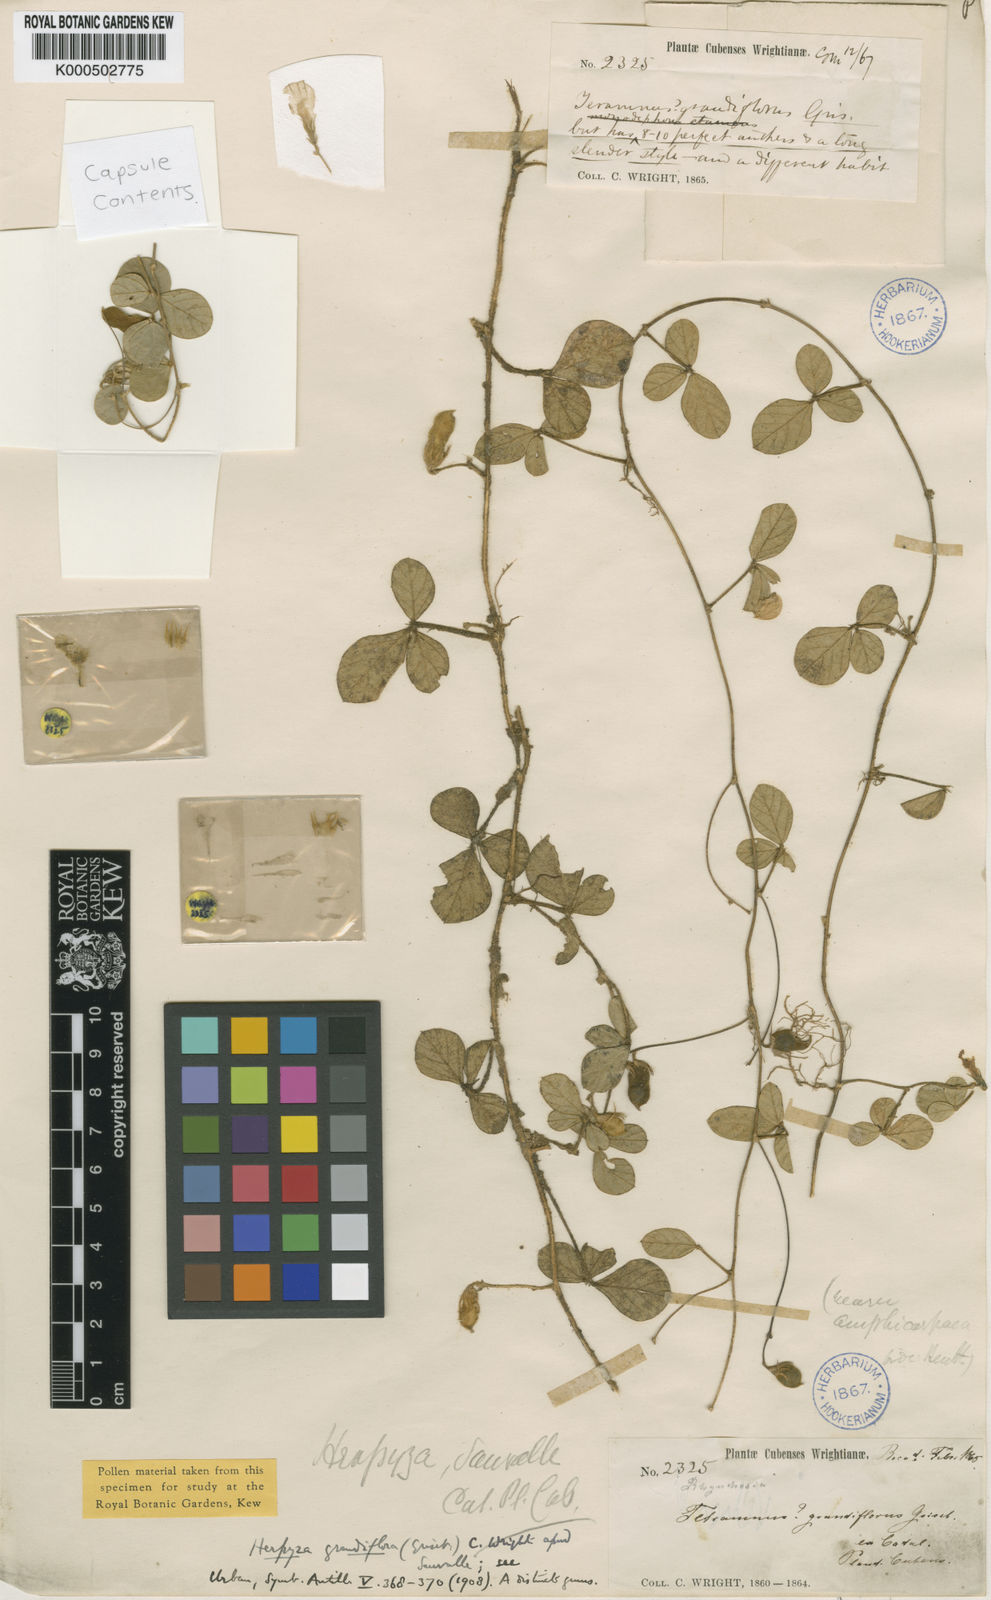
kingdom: Plantae
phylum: Tracheophyta
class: Magnoliopsida
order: Fabales
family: Fabaceae
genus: Herpyza
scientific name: Herpyza grandiflora
